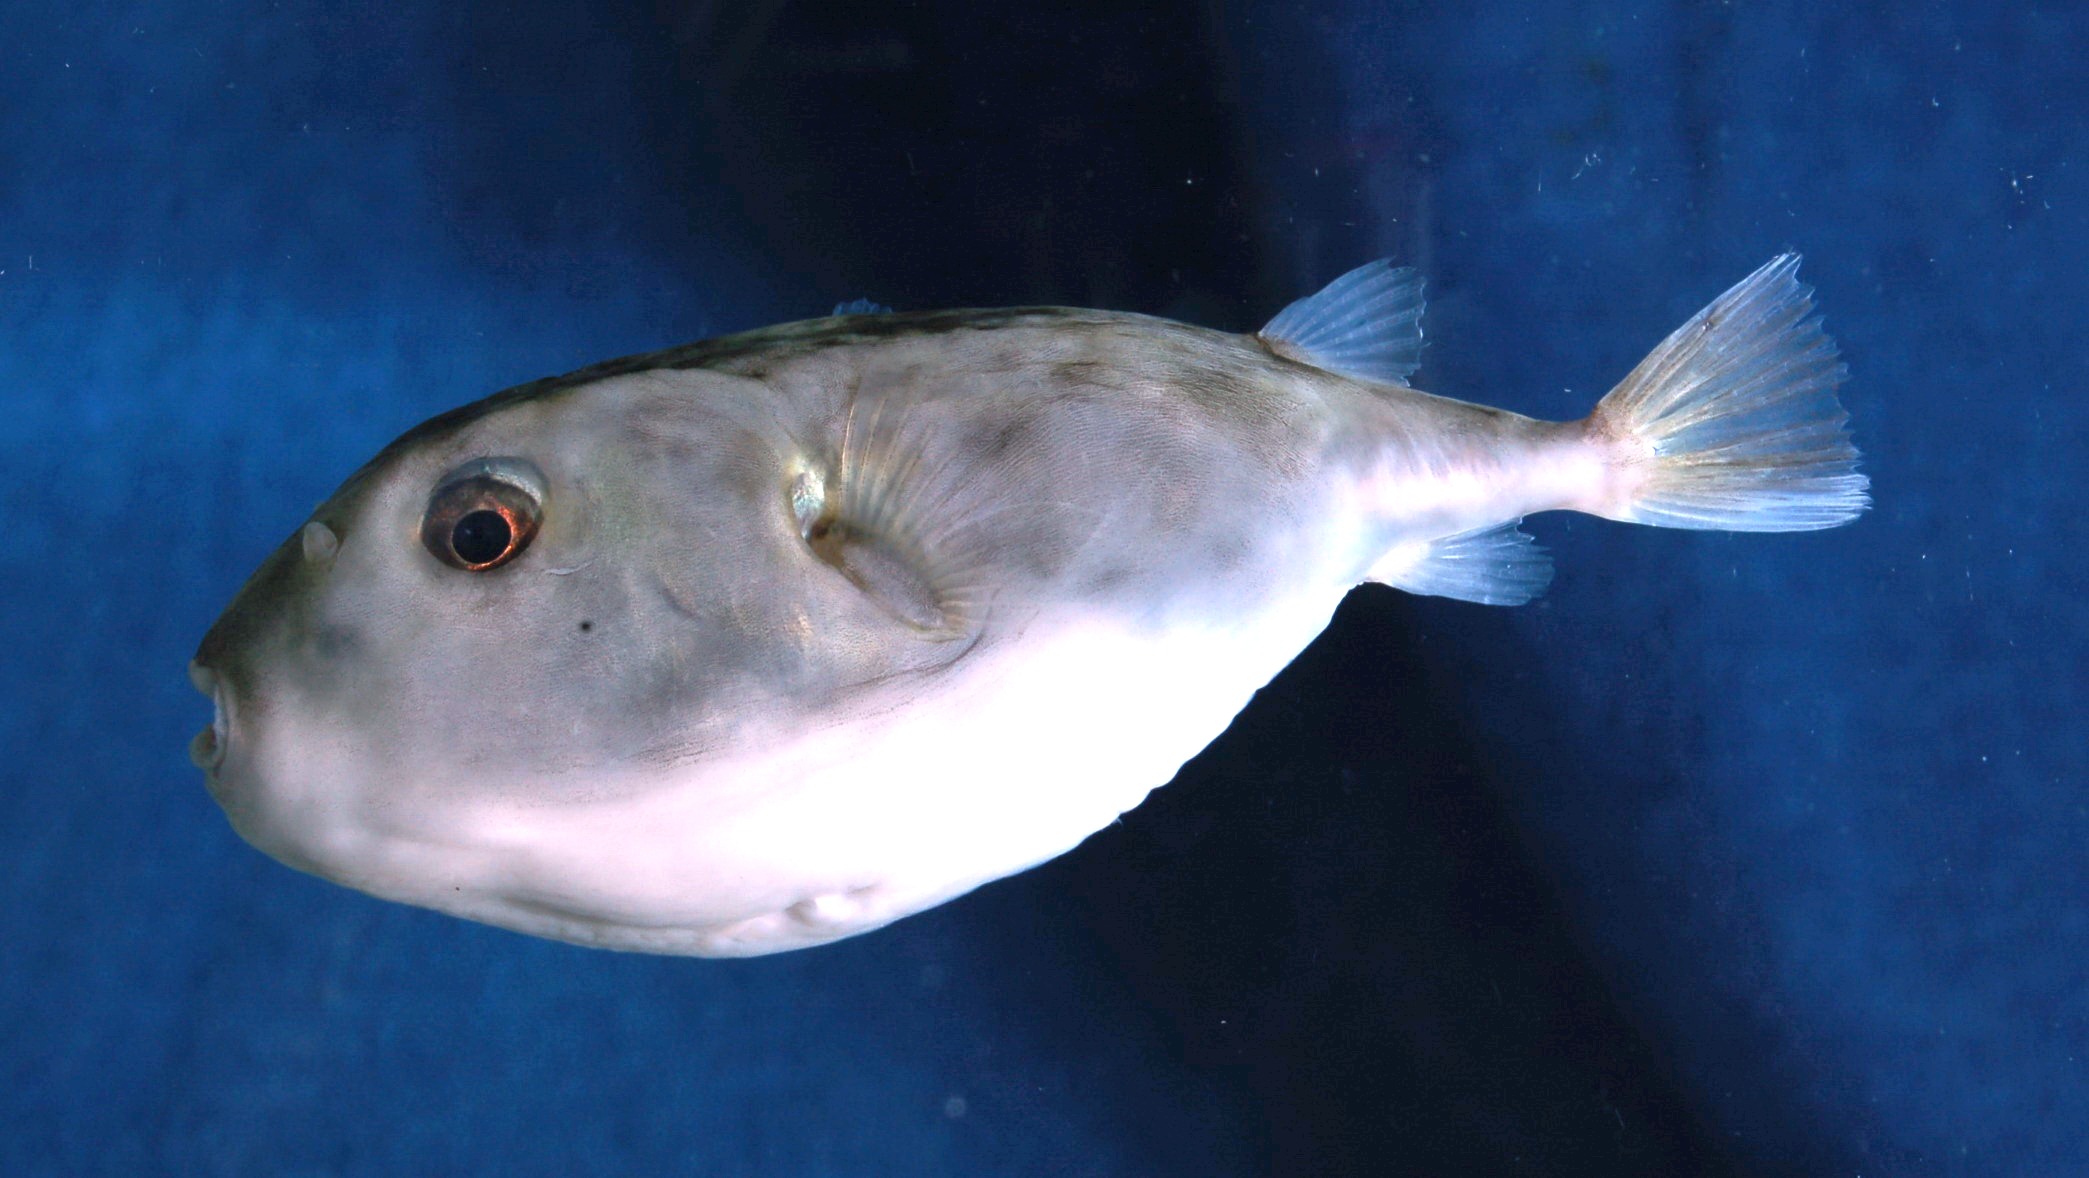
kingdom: Animalia
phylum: Chordata
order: Tetraodontiformes
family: Tetraodontidae
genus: Sphoeroides
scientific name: Sphoeroides pachygaster
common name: Blunthead puffer
